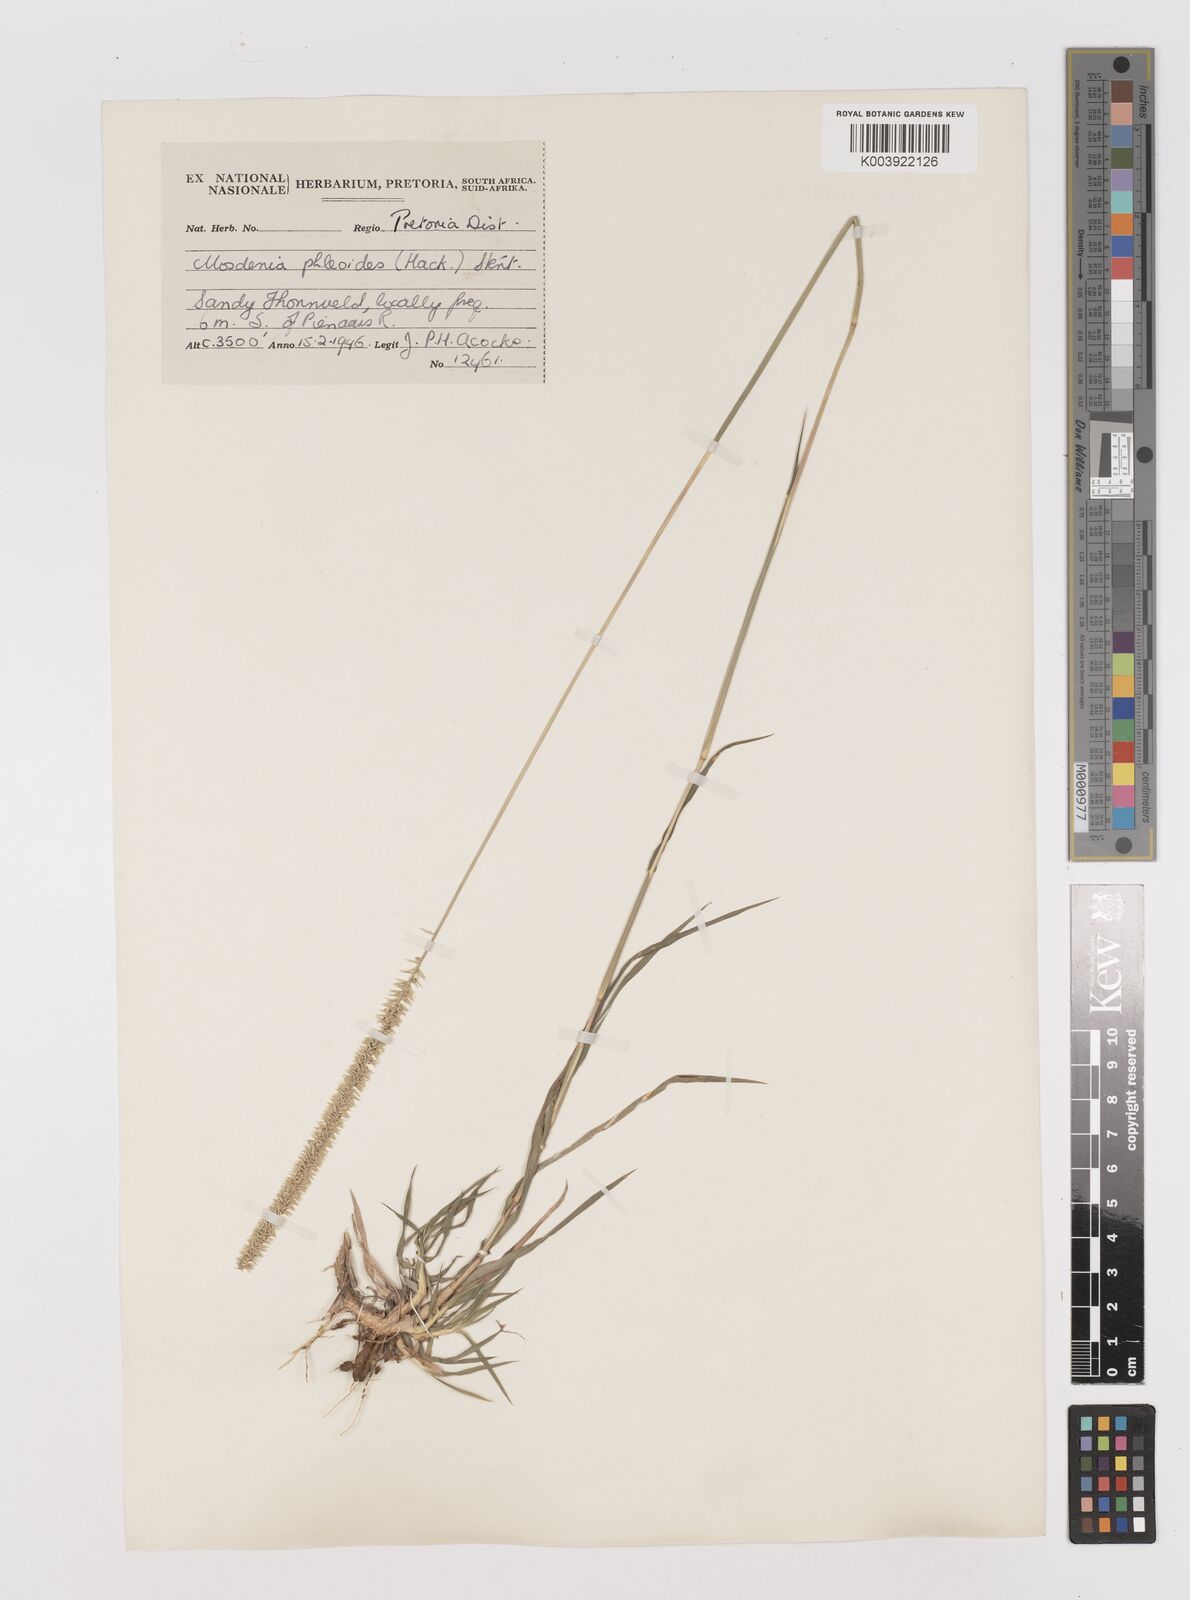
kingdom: Plantae
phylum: Tracheophyta
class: Liliopsida
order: Poales
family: Poaceae
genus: Mosdenia
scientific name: Mosdenia leptostachys
